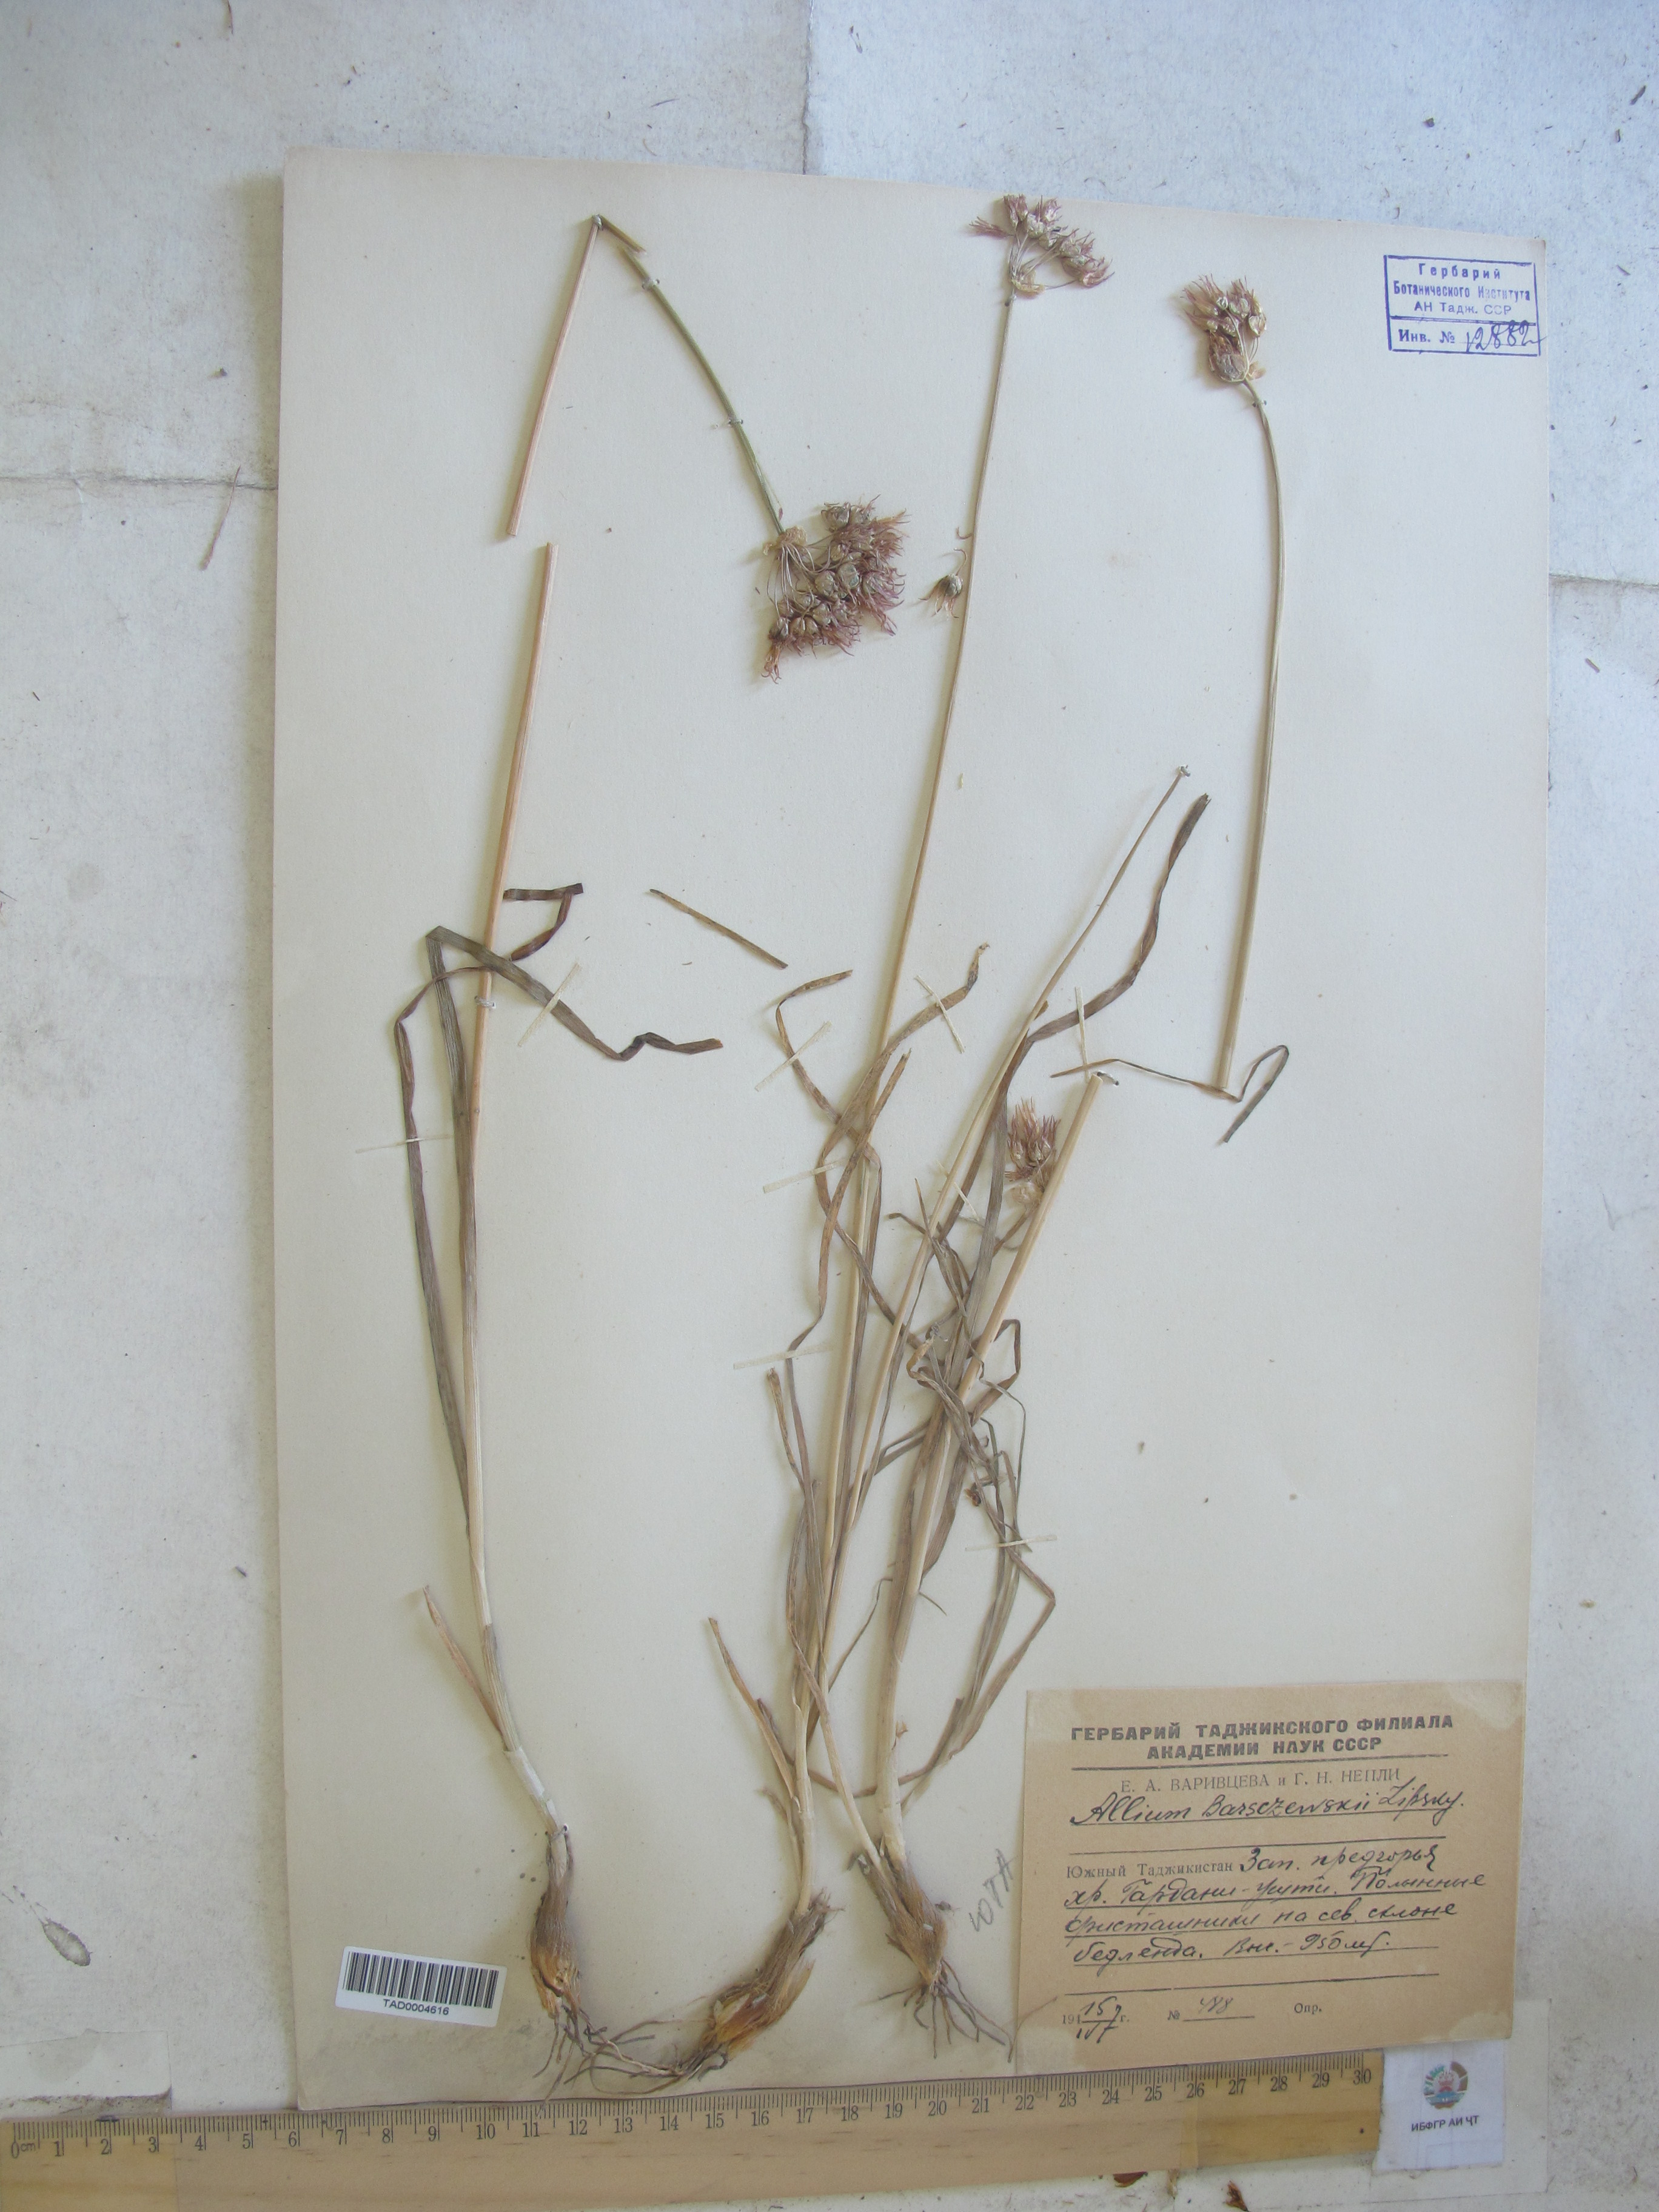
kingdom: Plantae
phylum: Tracheophyta
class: Liliopsida
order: Asparagales
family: Amaryllidaceae
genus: Allium
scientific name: Allium barsczewskii
